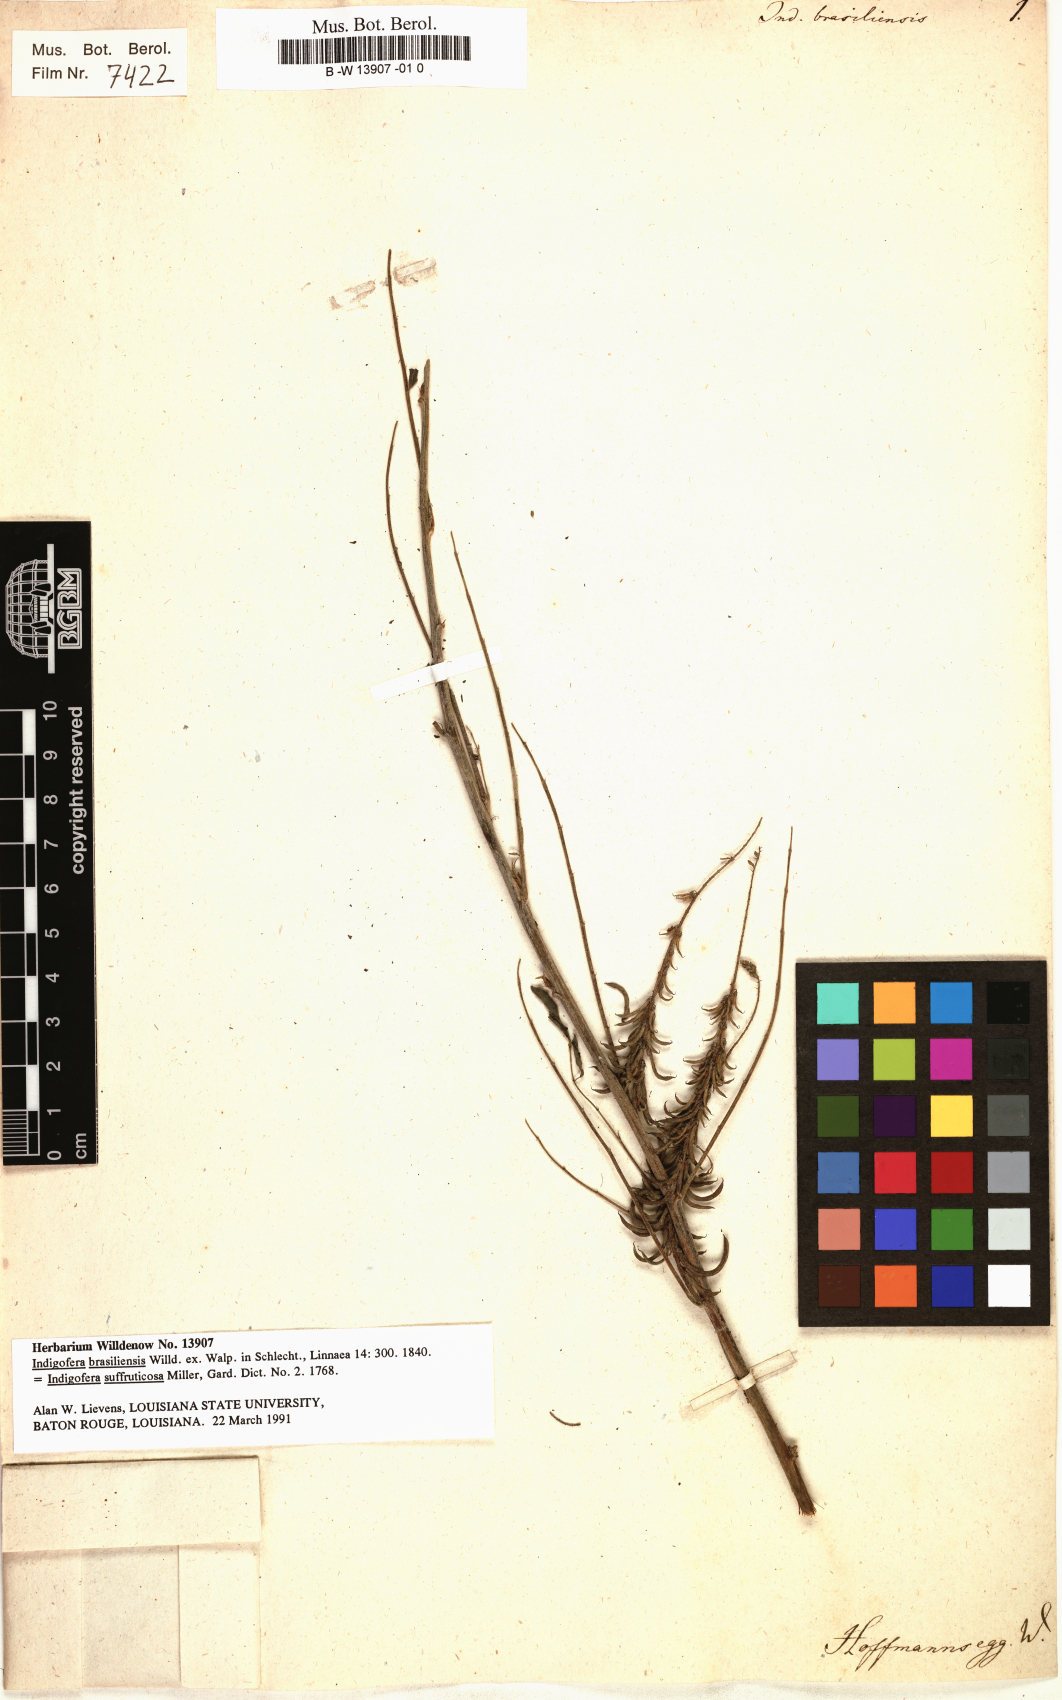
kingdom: Plantae
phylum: Tracheophyta
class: Magnoliopsida
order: Fabales
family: Fabaceae
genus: Indigofera
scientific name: Indigofera
